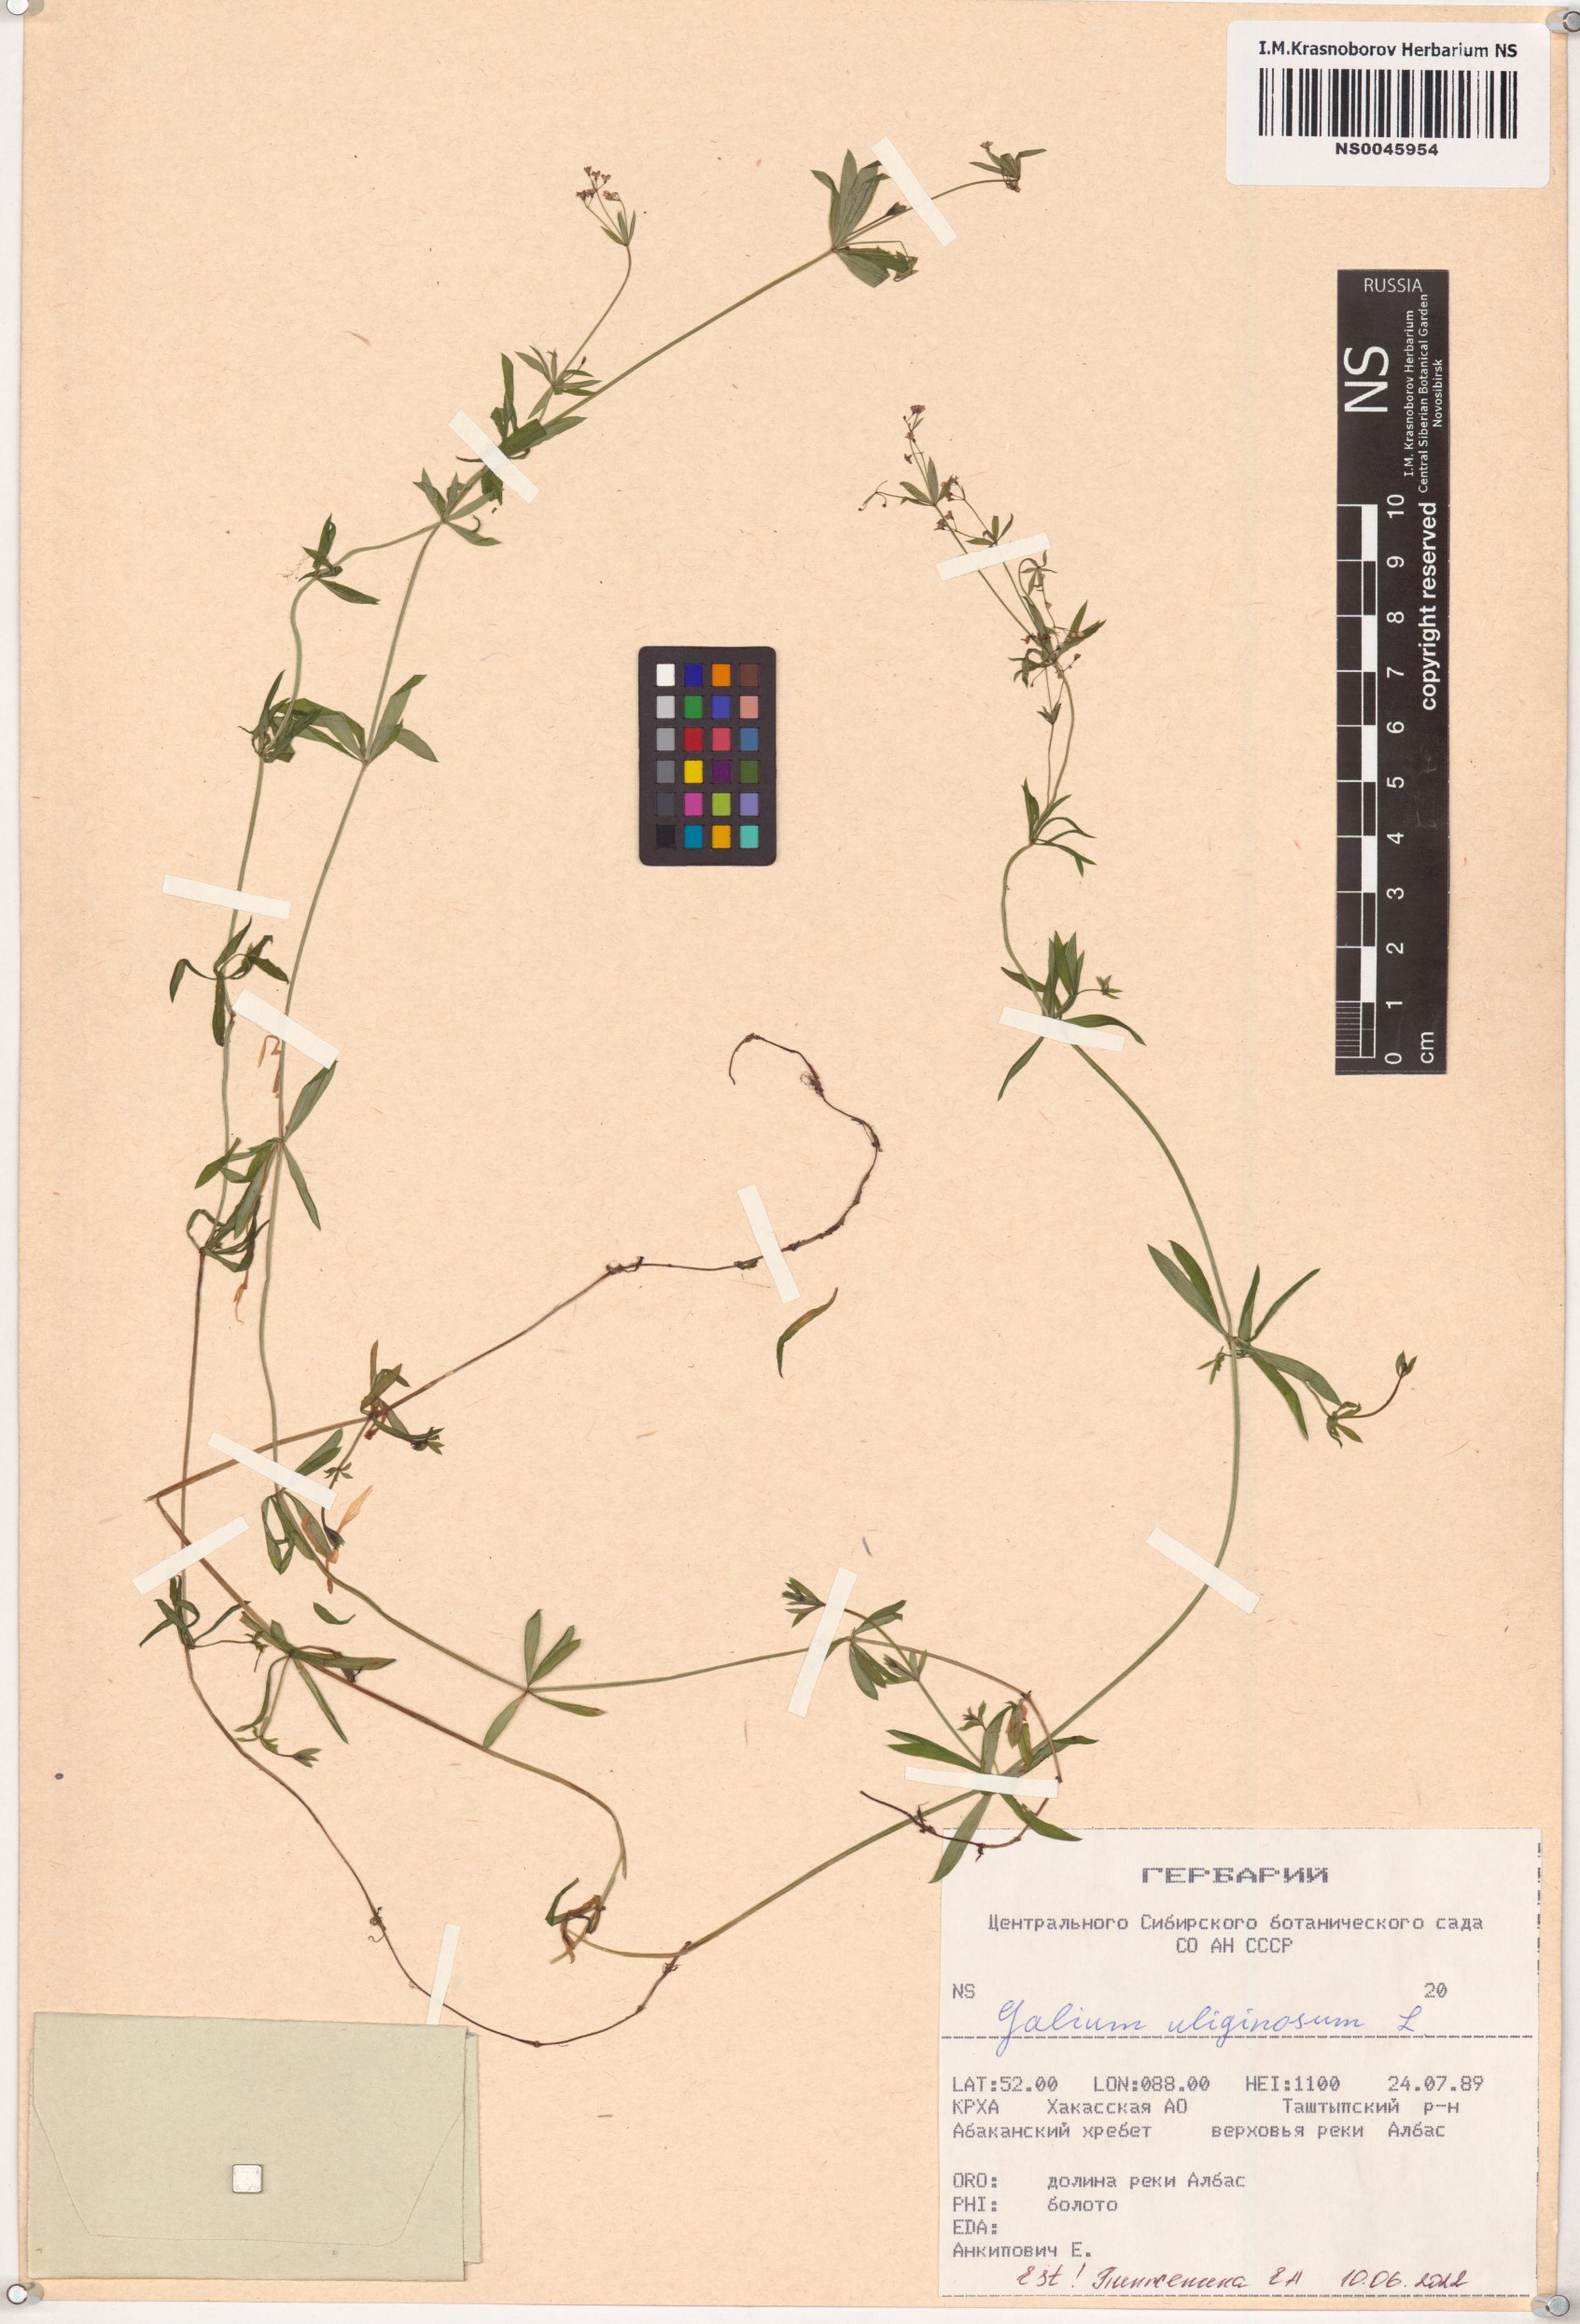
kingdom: Plantae
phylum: Tracheophyta
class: Magnoliopsida
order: Gentianales
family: Rubiaceae
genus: Galium
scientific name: Galium uliginosum
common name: Fen bedstraw
